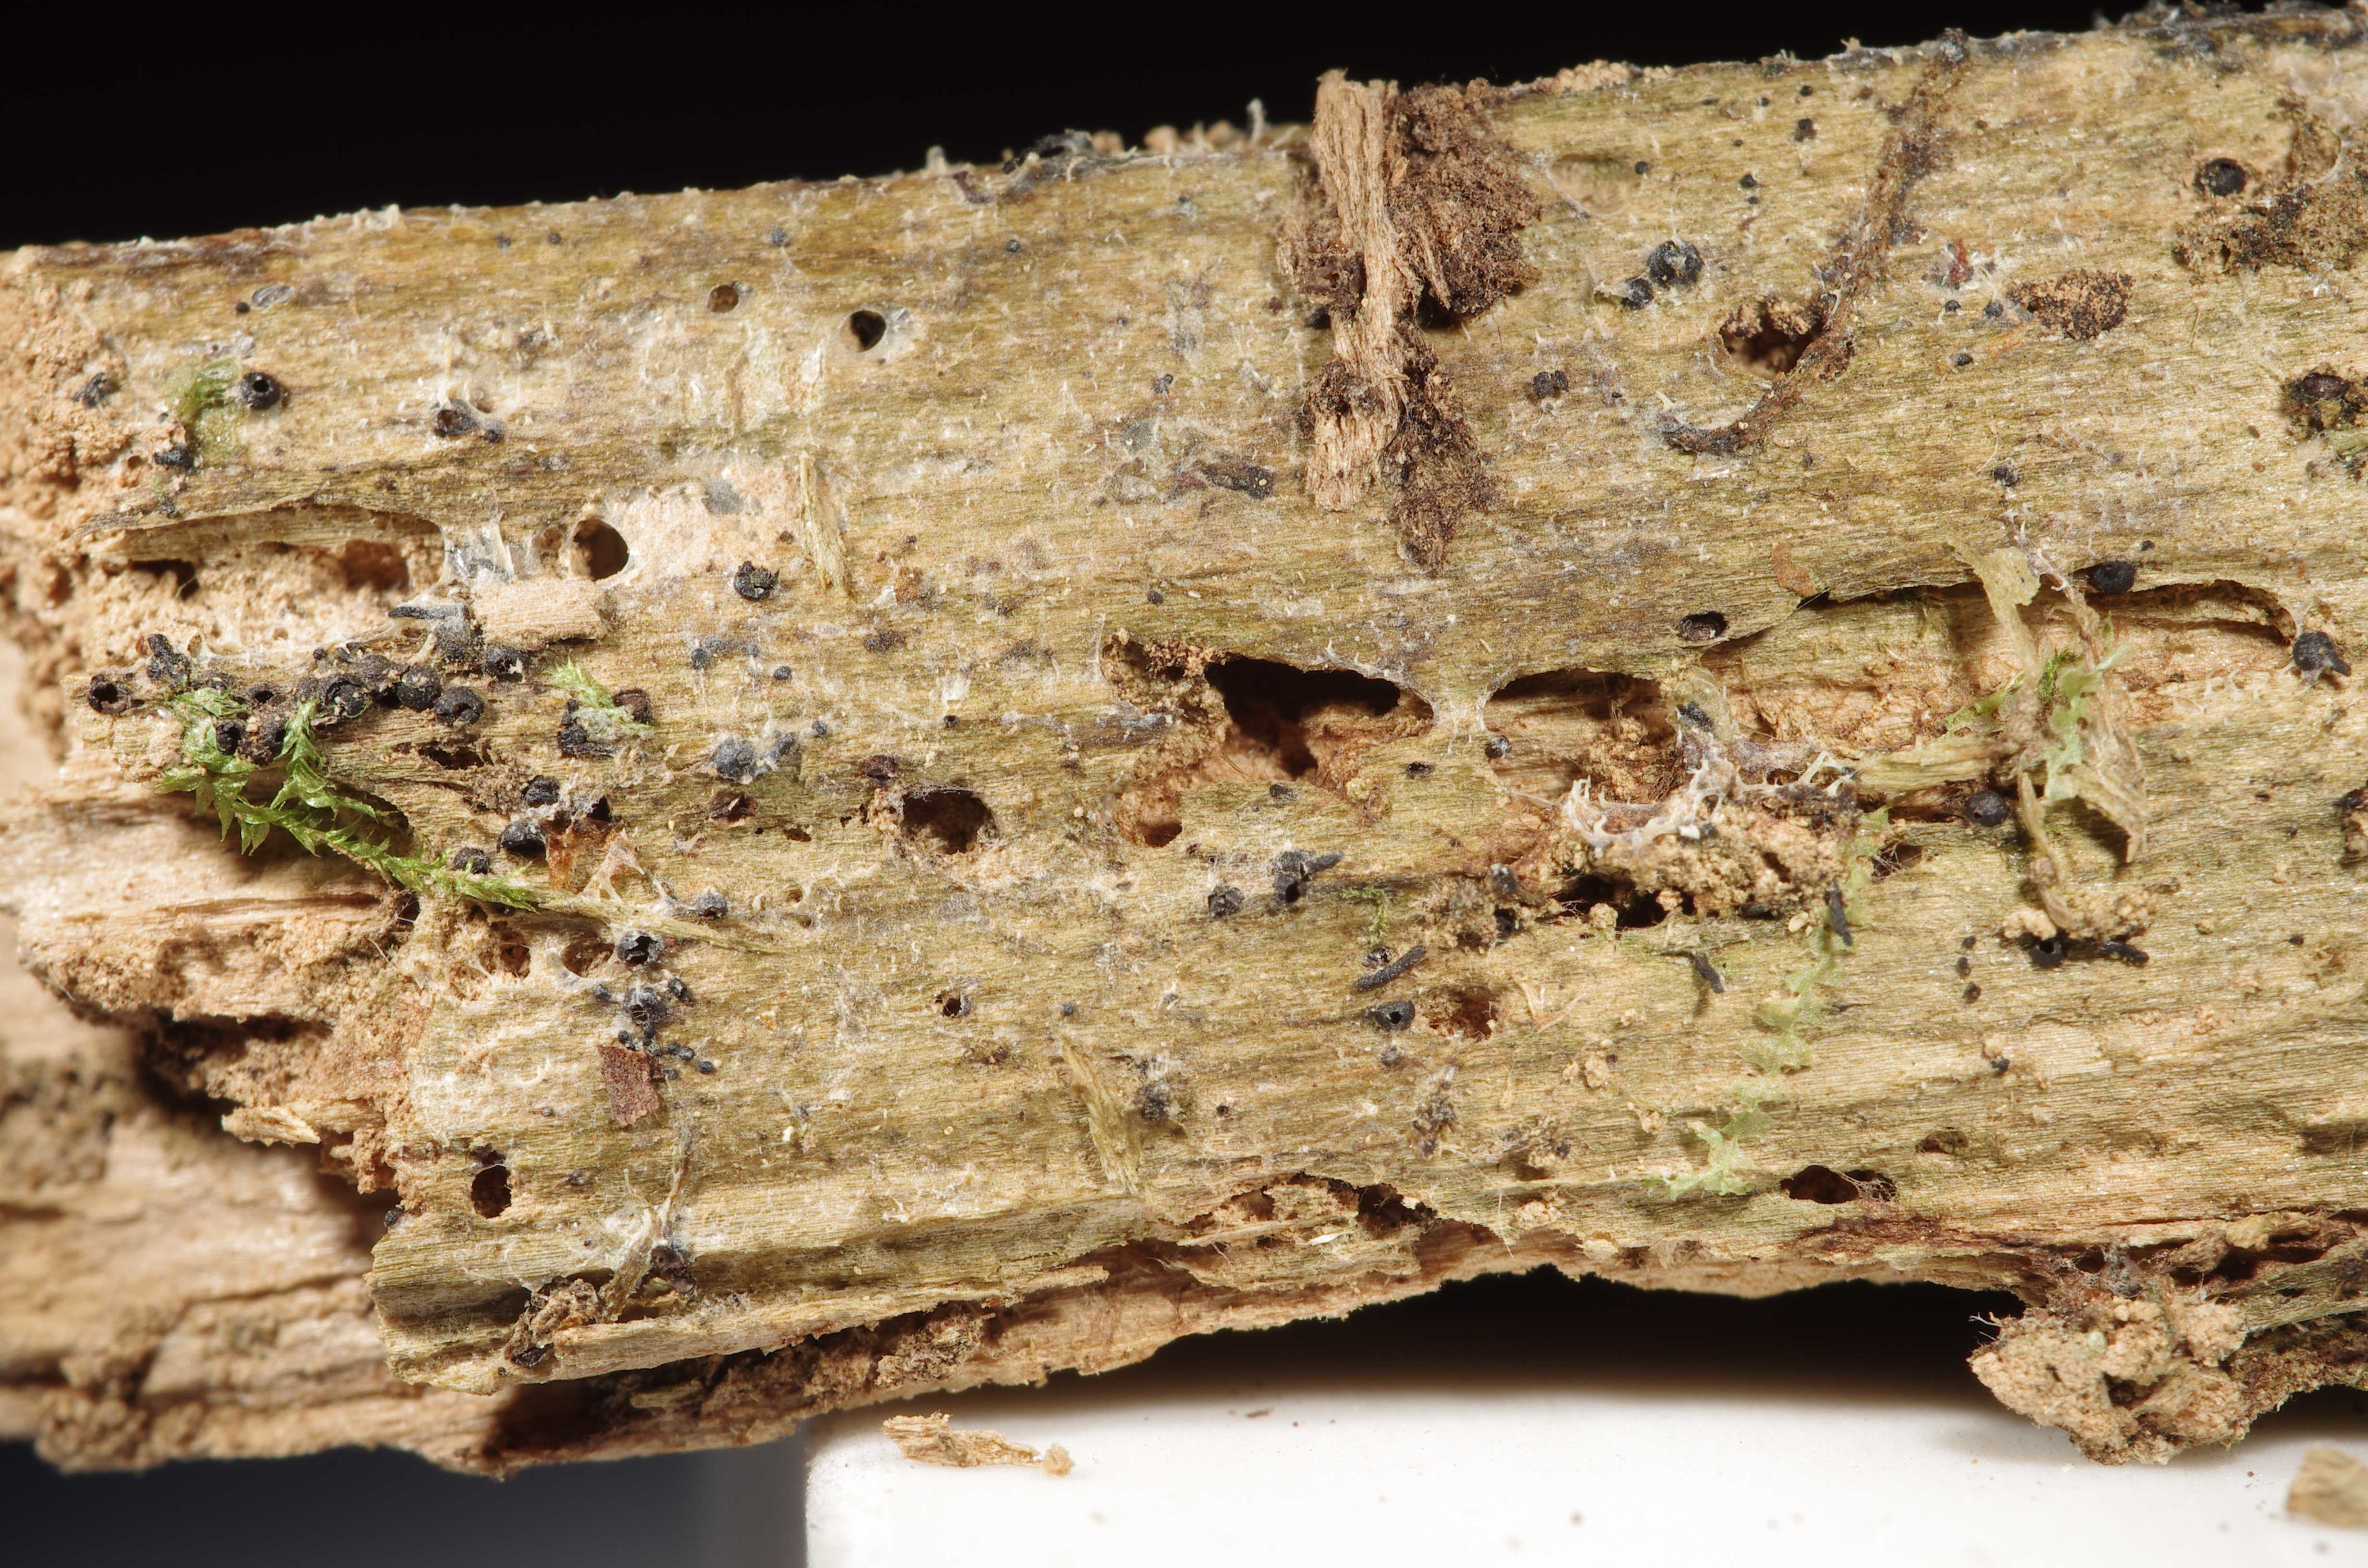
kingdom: Fungi
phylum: Basidiomycota
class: Agaricomycetes
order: Auriculariales
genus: Ofella
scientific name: Ofella glaira
